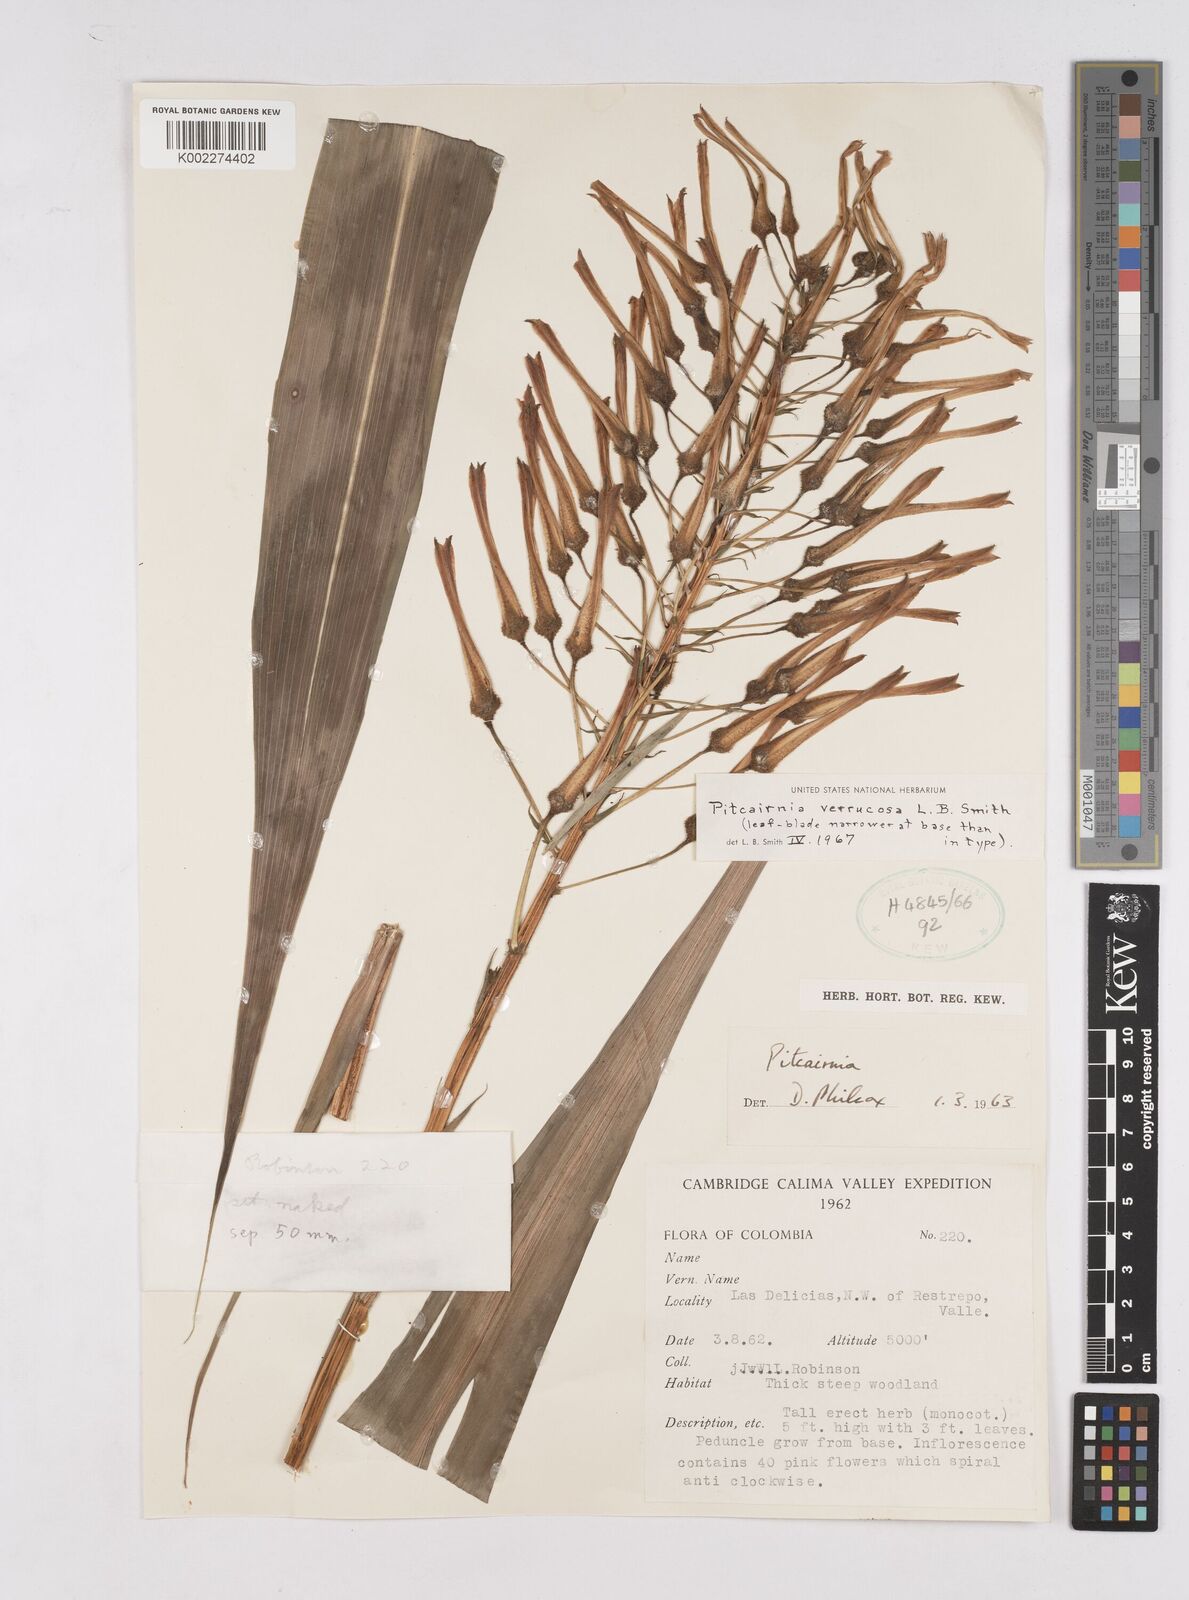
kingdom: Plantae
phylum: Tracheophyta
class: Liliopsida
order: Poales
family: Bromeliaceae
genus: Pitcairnia
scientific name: Pitcairnia verrucosa
